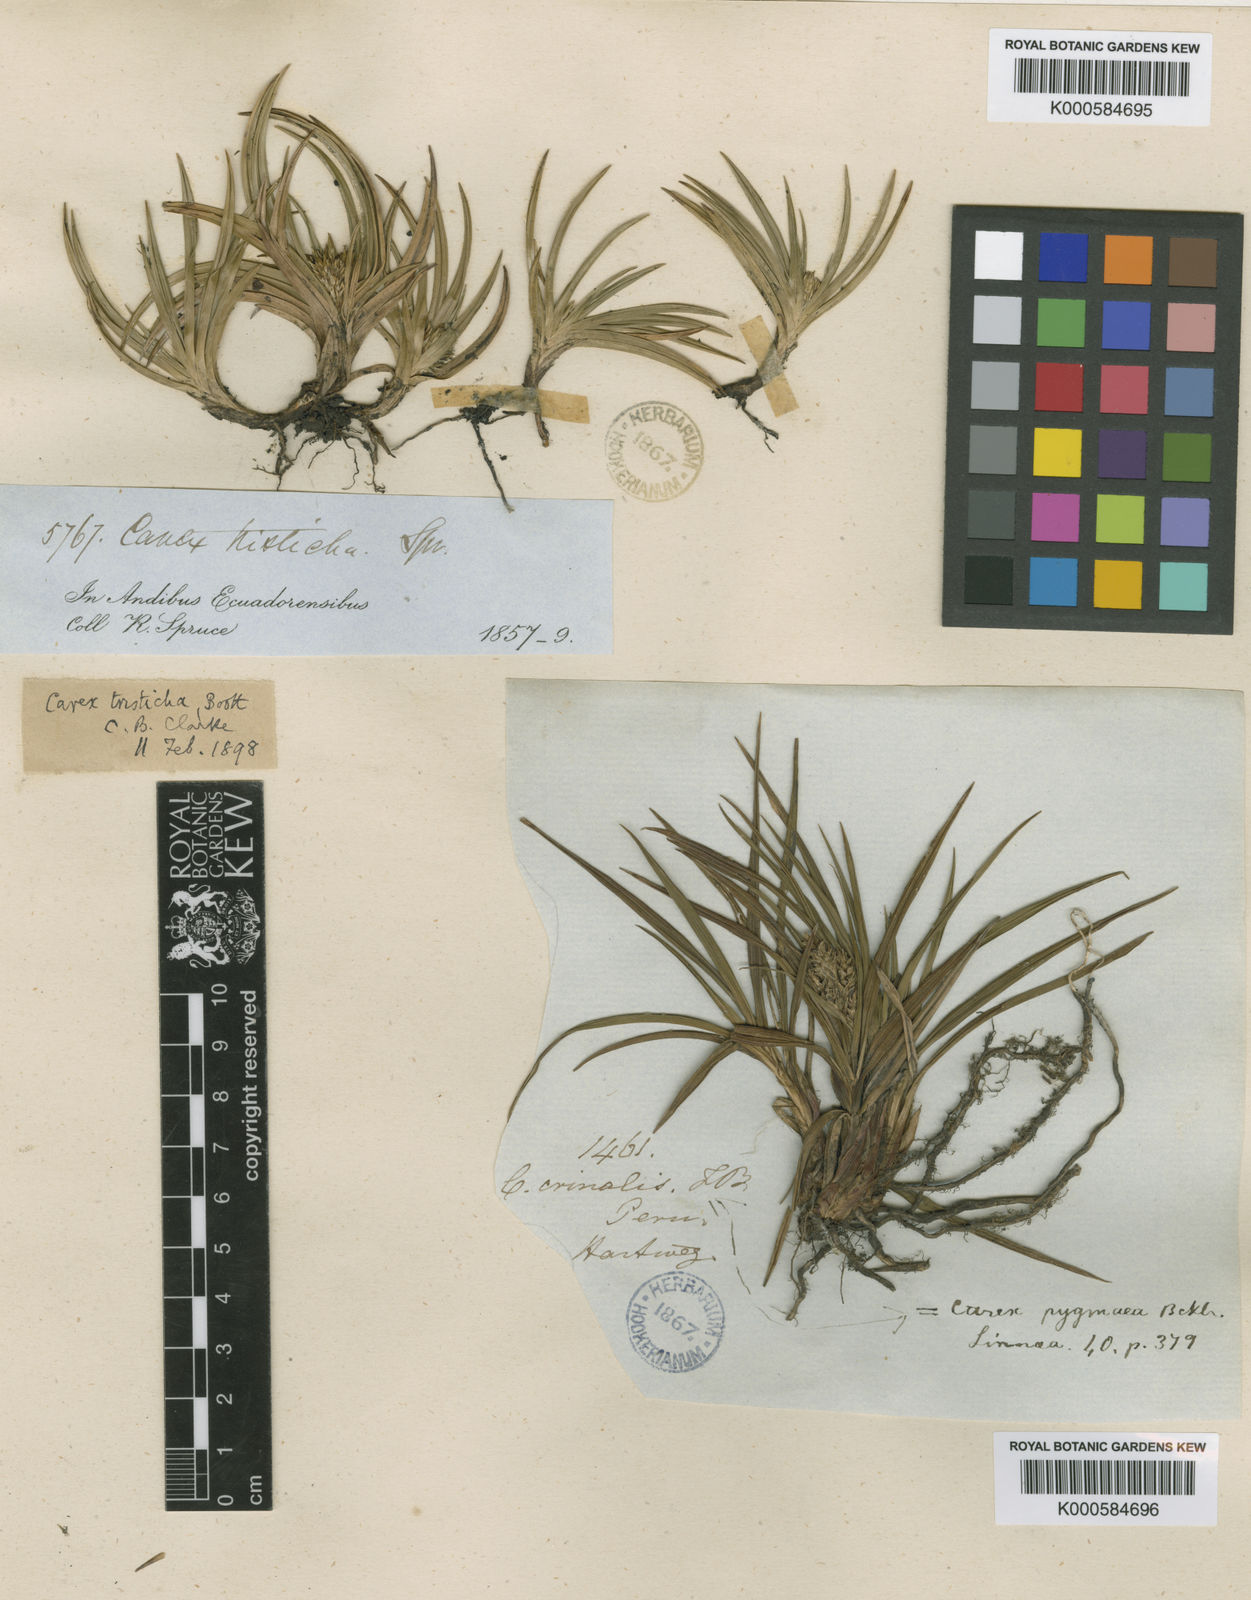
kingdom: Plantae
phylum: Tracheophyta
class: Liliopsida
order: Poales
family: Cyperaceae
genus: Carex
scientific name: Carex pygmaea
